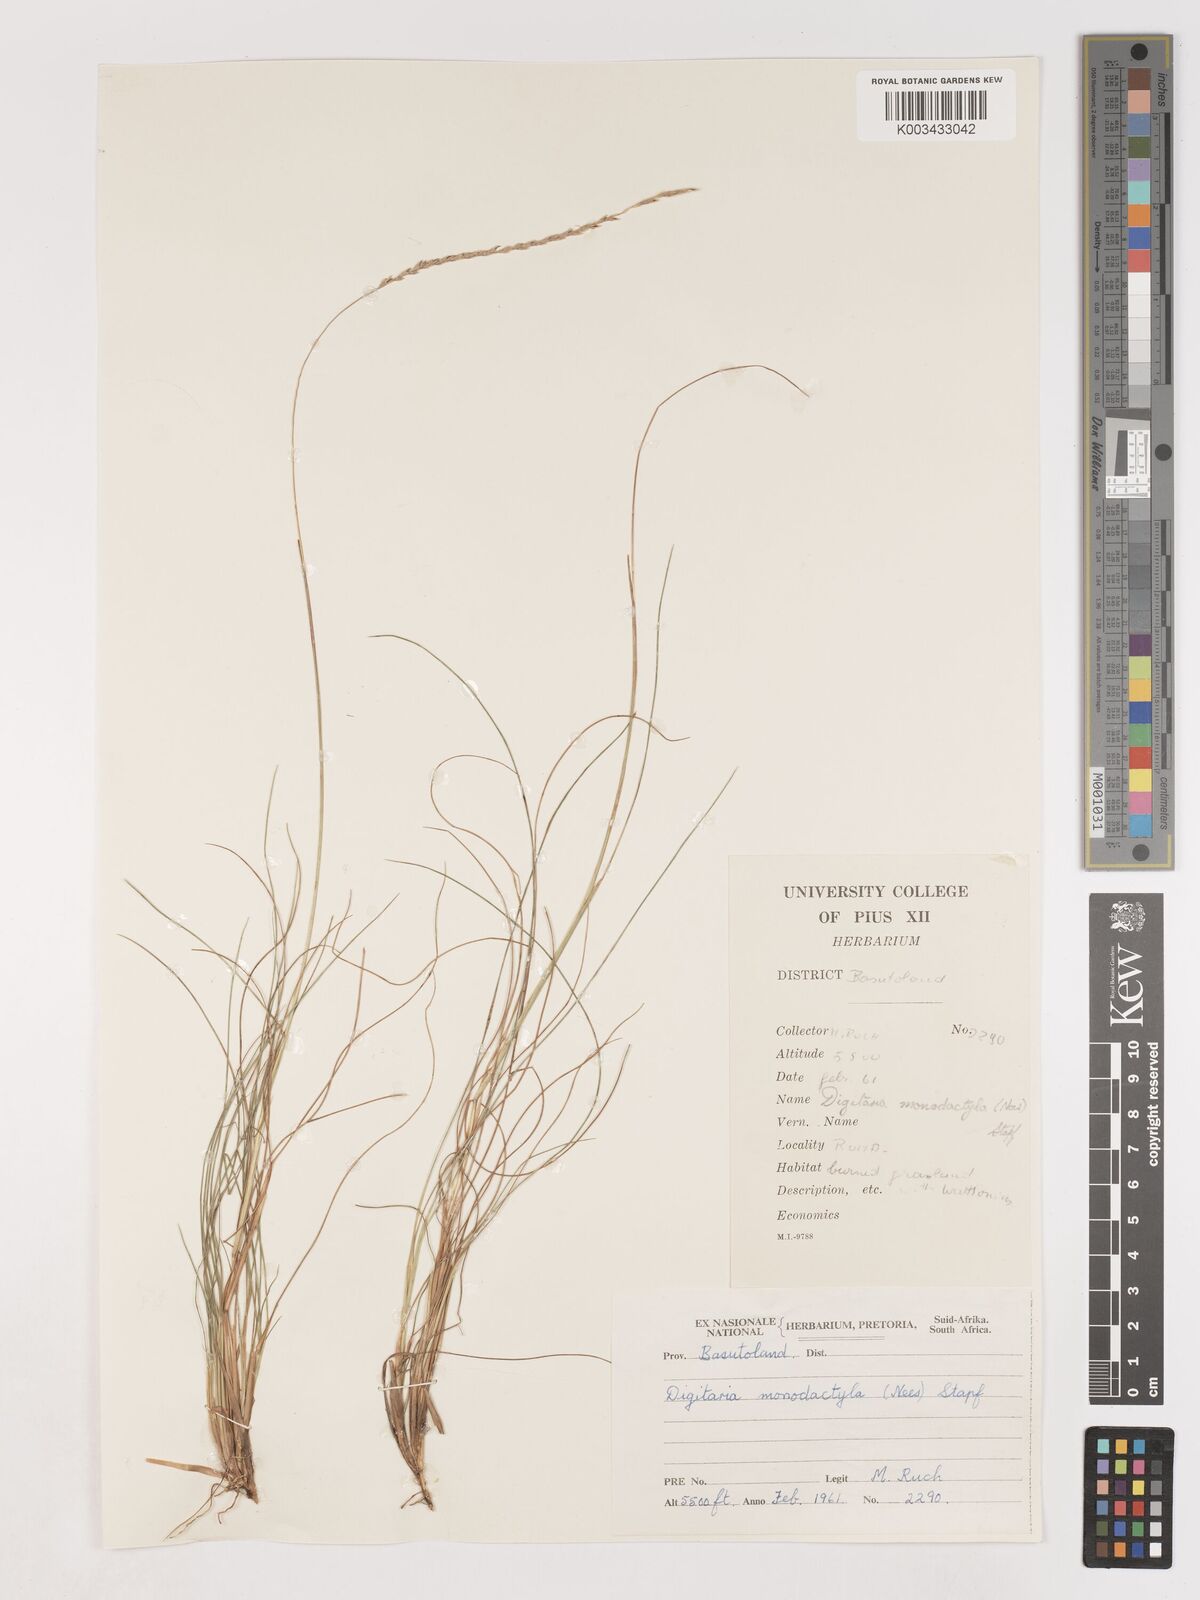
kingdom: Plantae
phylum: Tracheophyta
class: Liliopsida
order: Poales
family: Poaceae
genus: Digitaria
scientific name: Digitaria monodactyla
